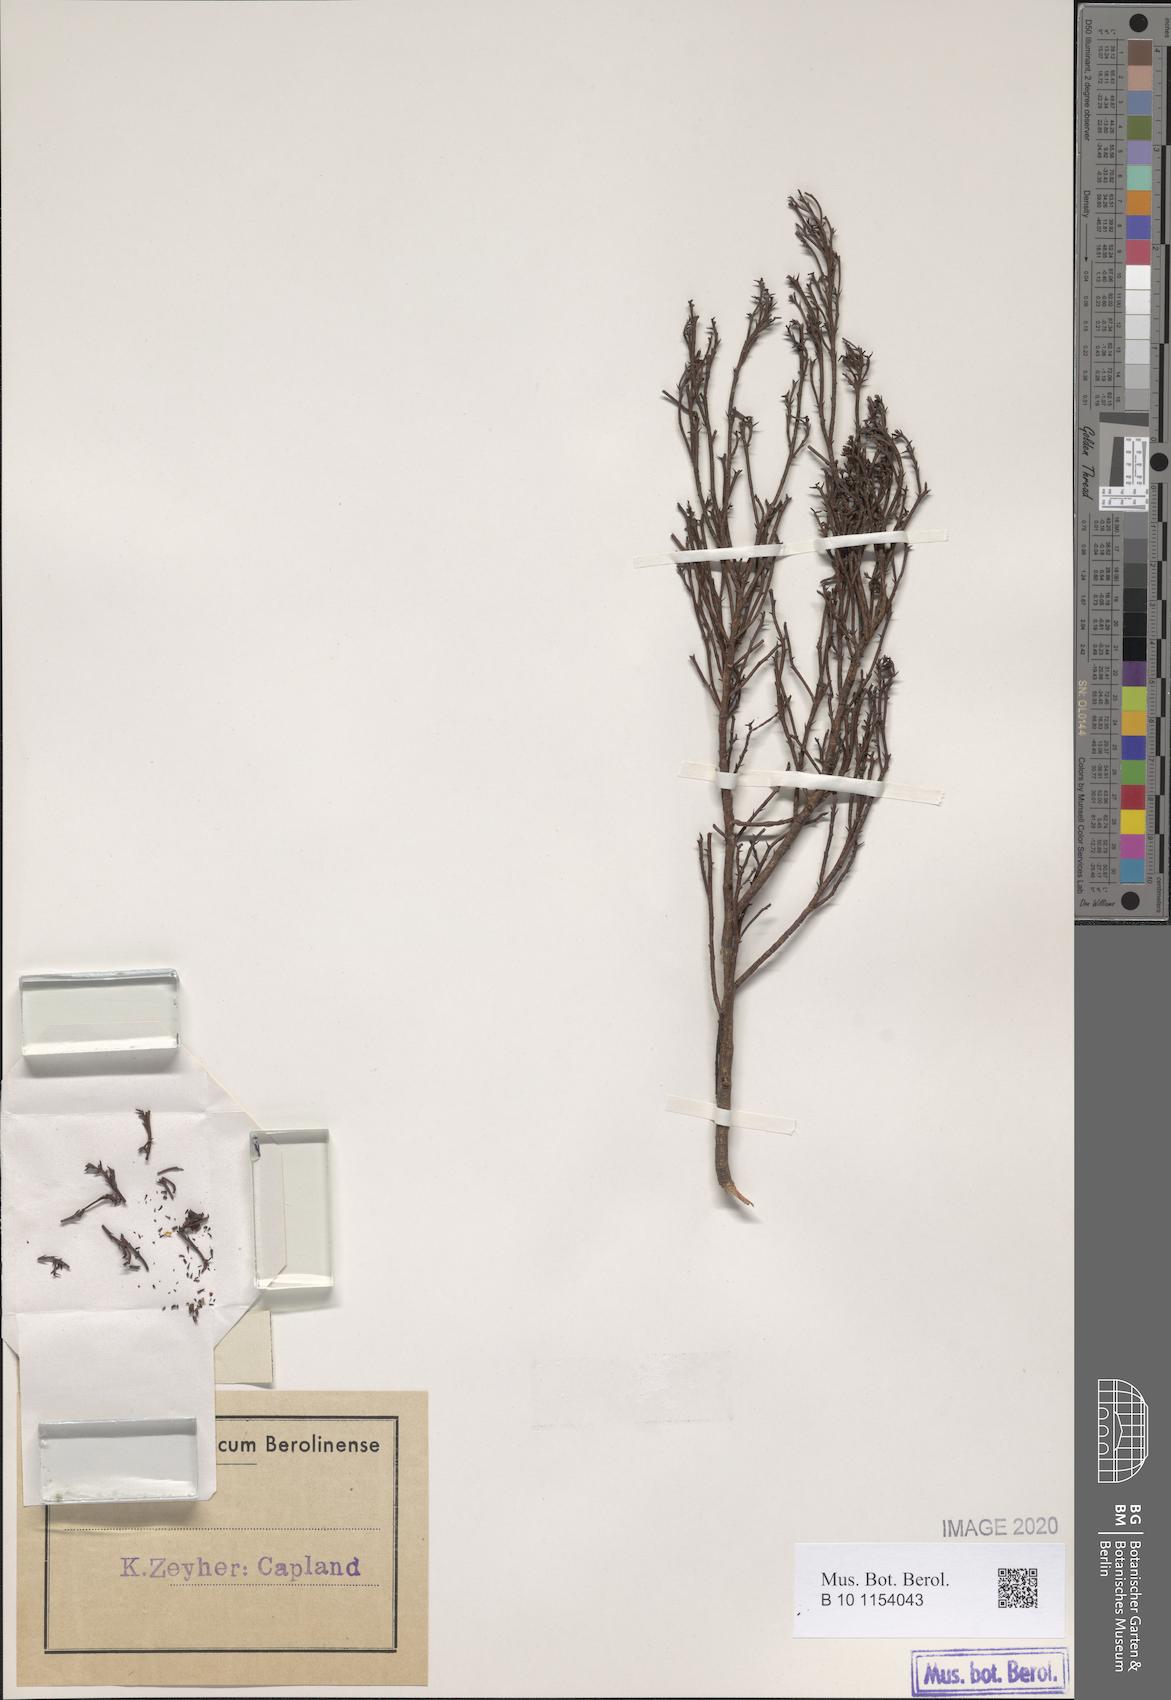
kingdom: Plantae
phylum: Tracheophyta
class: Magnoliopsida
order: Santalales
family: Thesiaceae
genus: Thesium
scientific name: Thesium virgatum
